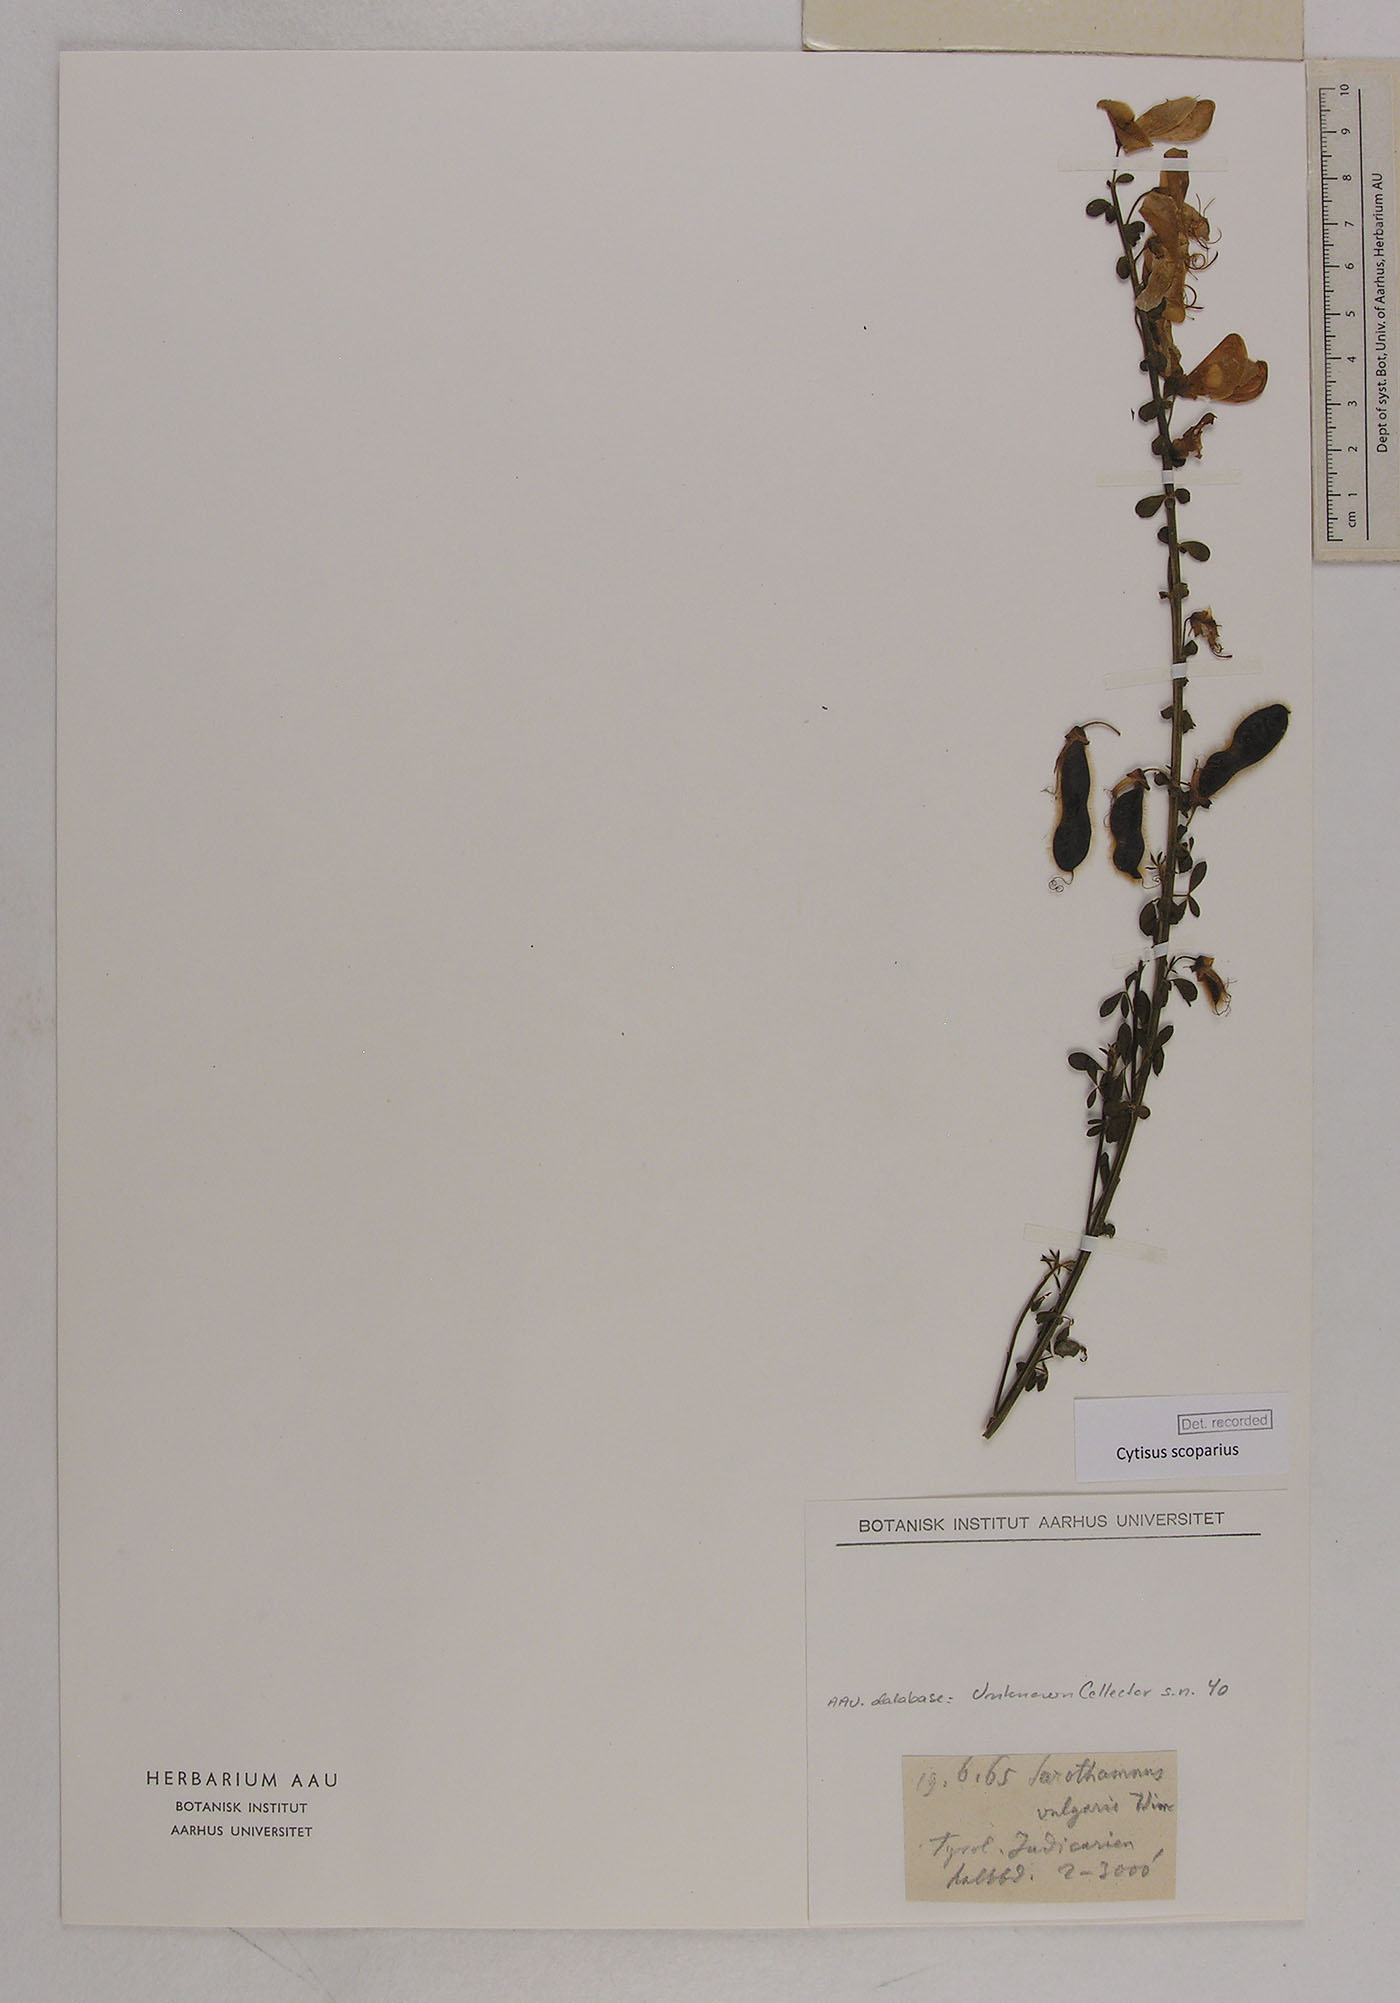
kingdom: Plantae
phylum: Tracheophyta
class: Magnoliopsida
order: Fabales
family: Fabaceae
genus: Cytisus
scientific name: Cytisus scoparius
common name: Scotch broom
